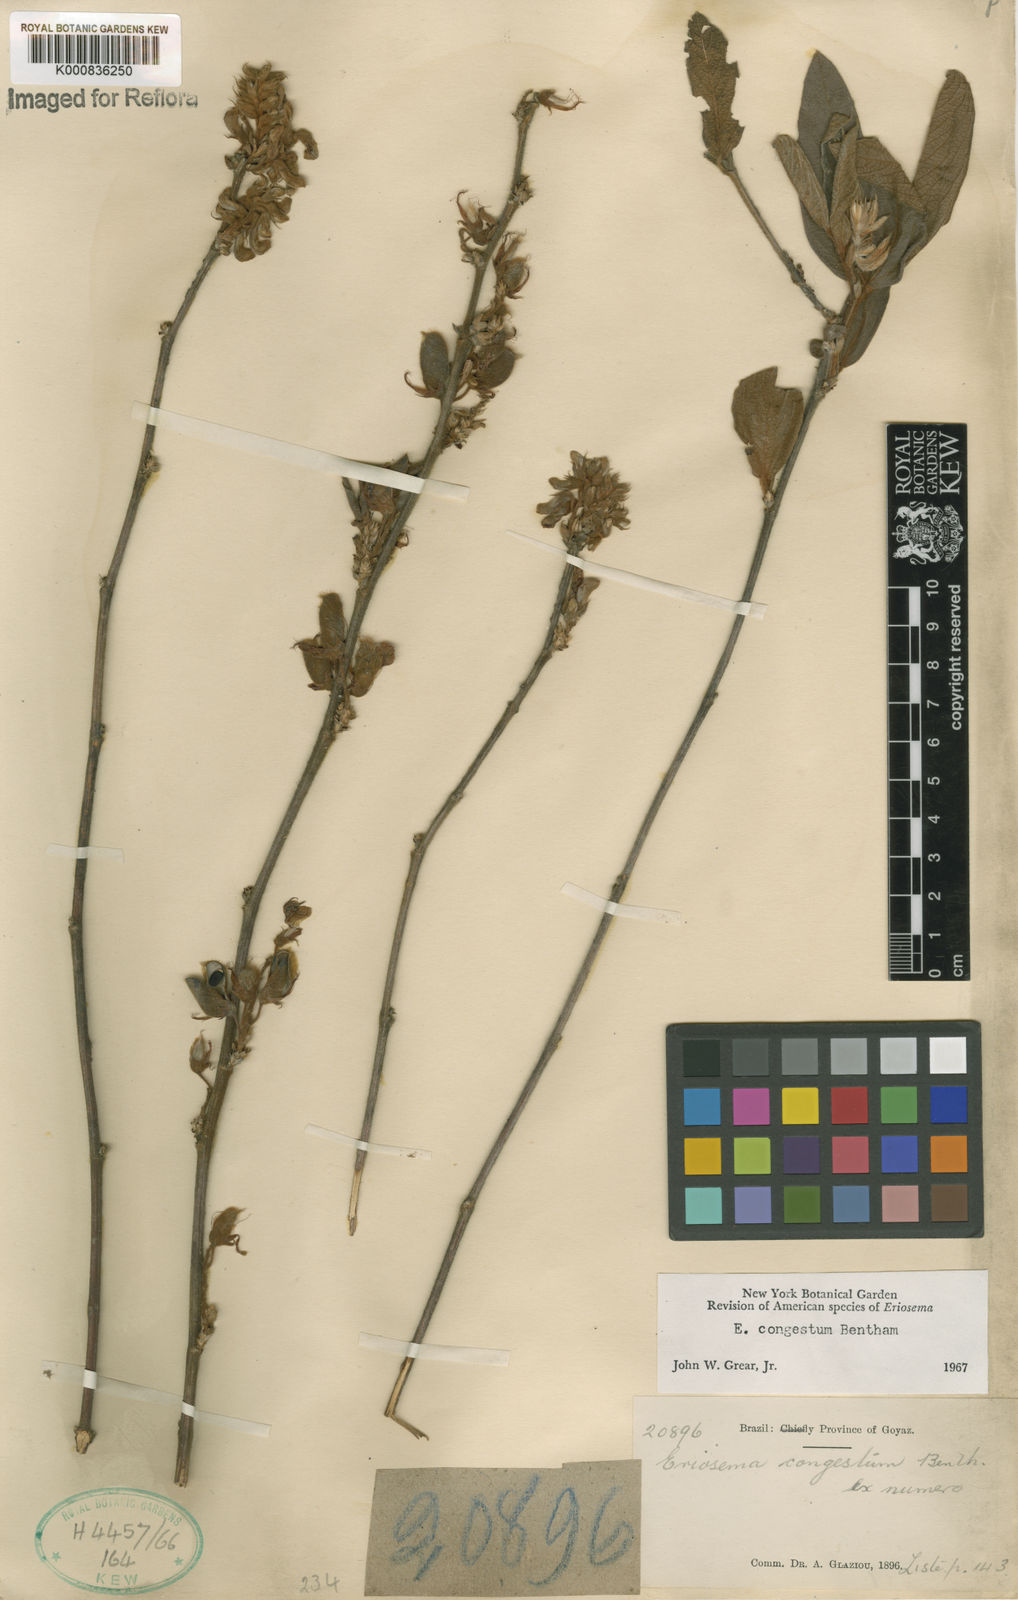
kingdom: Plantae
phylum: Tracheophyta
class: Magnoliopsida
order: Fabales
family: Fabaceae
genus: Eriosema
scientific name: Eriosema congestum
